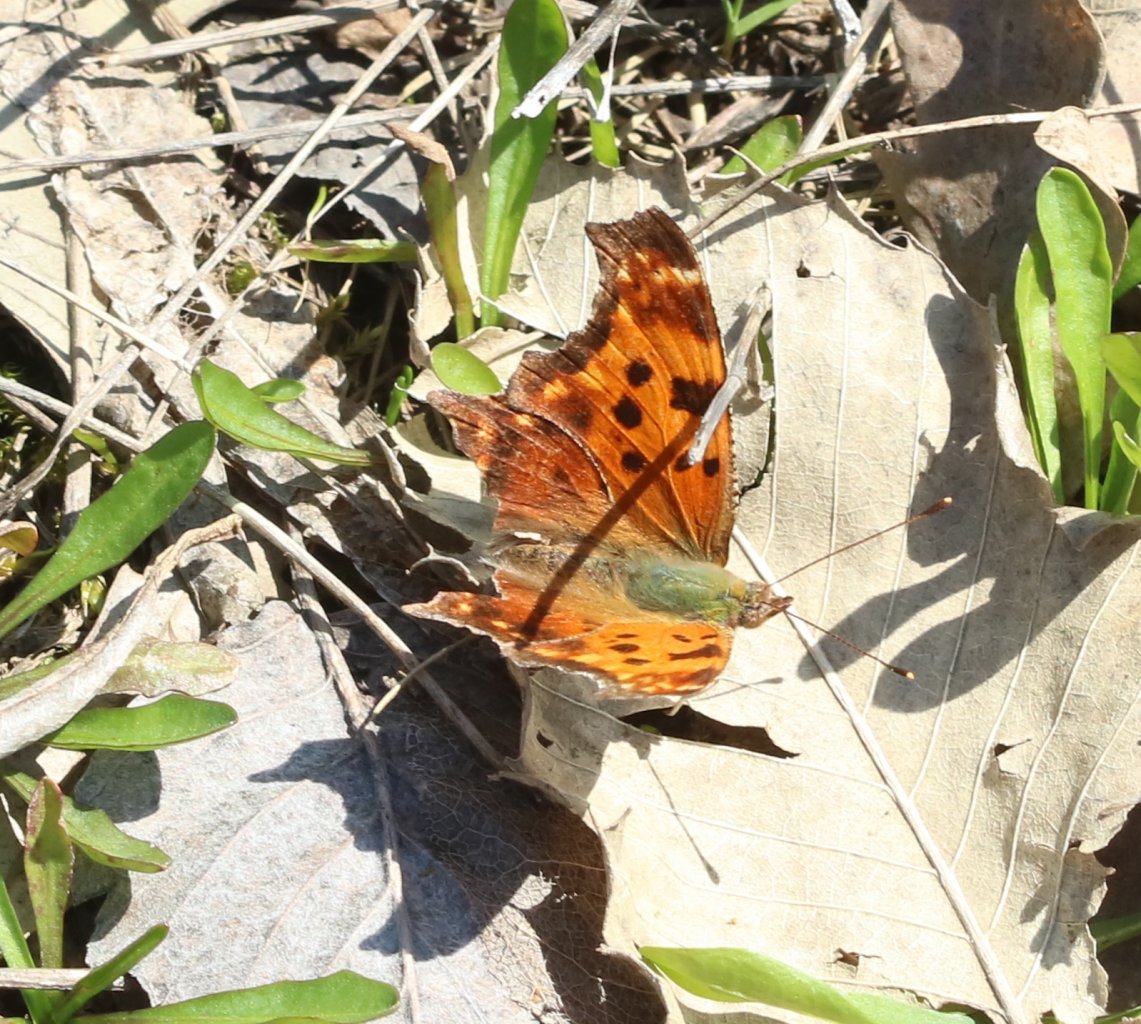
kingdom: Animalia
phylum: Arthropoda
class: Insecta
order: Lepidoptera
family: Nymphalidae
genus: Polygonia
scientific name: Polygonia comma
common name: Eastern Comma
